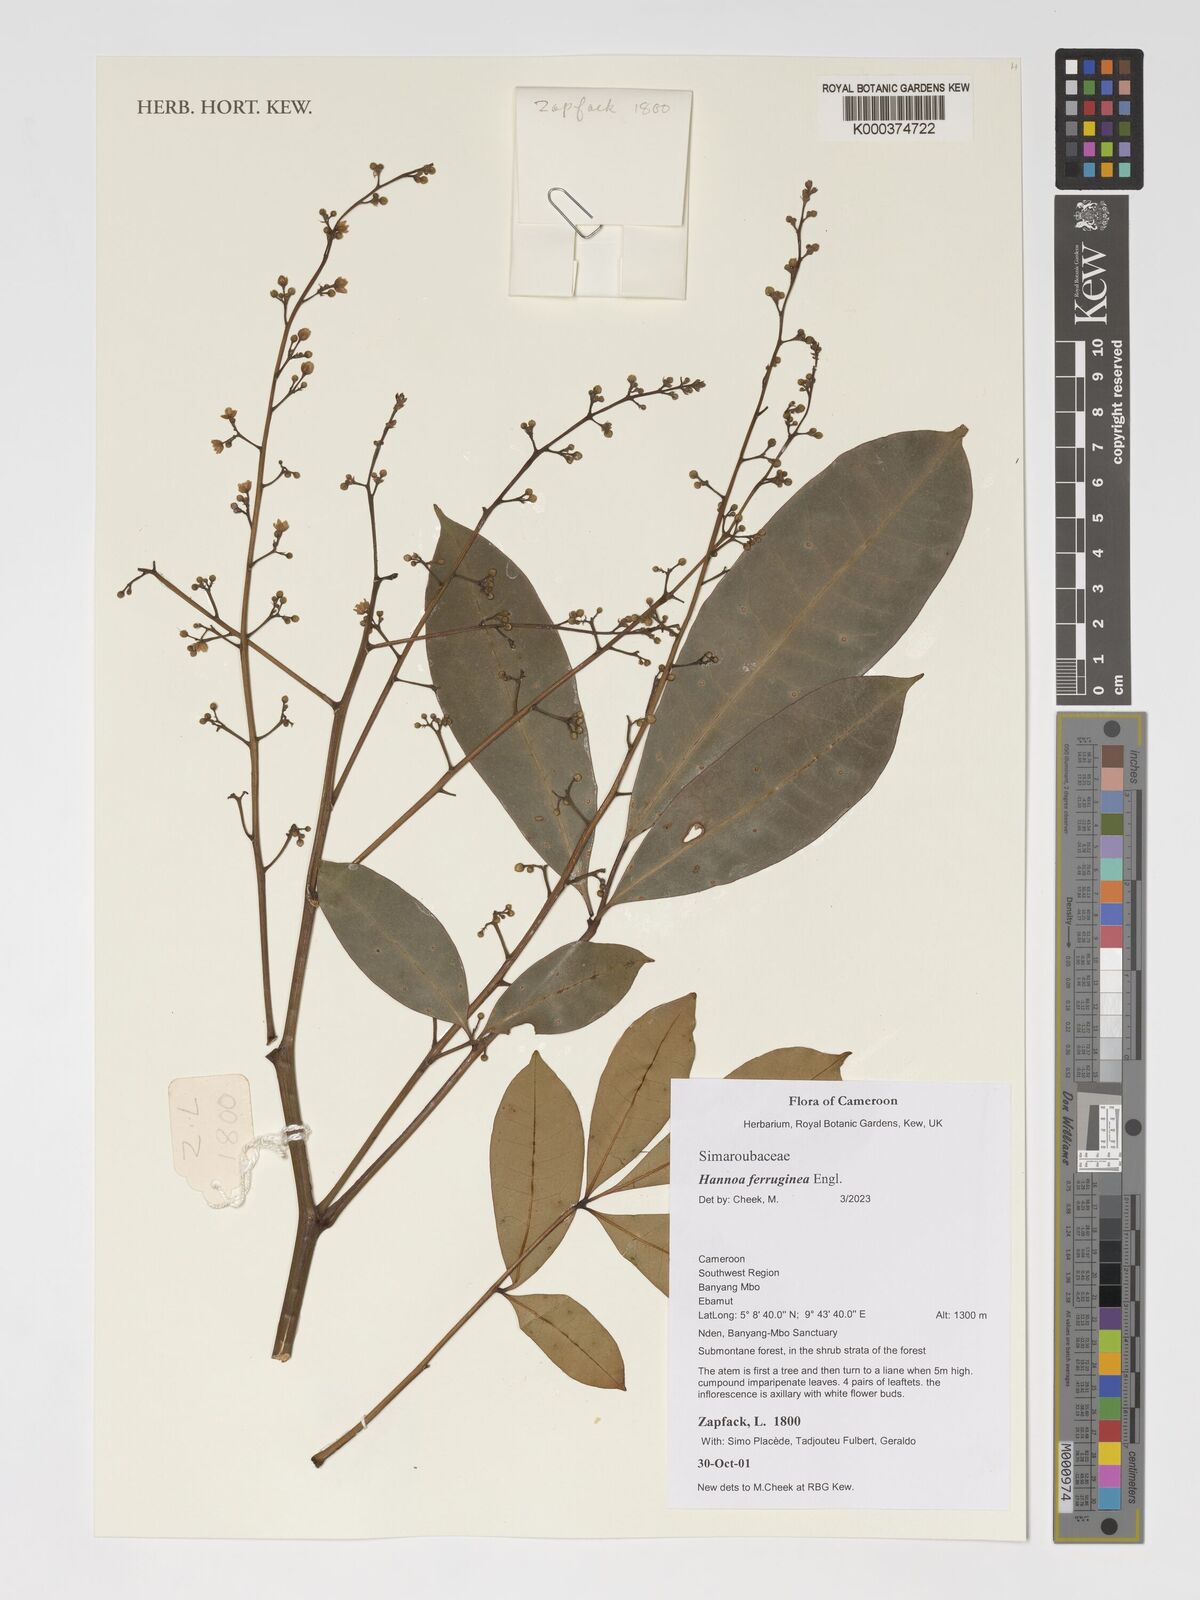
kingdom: Plantae
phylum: Tracheophyta
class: Magnoliopsida
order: Sapindales
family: Simaroubaceae
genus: Hannoa
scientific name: Hannoa ferruginea
